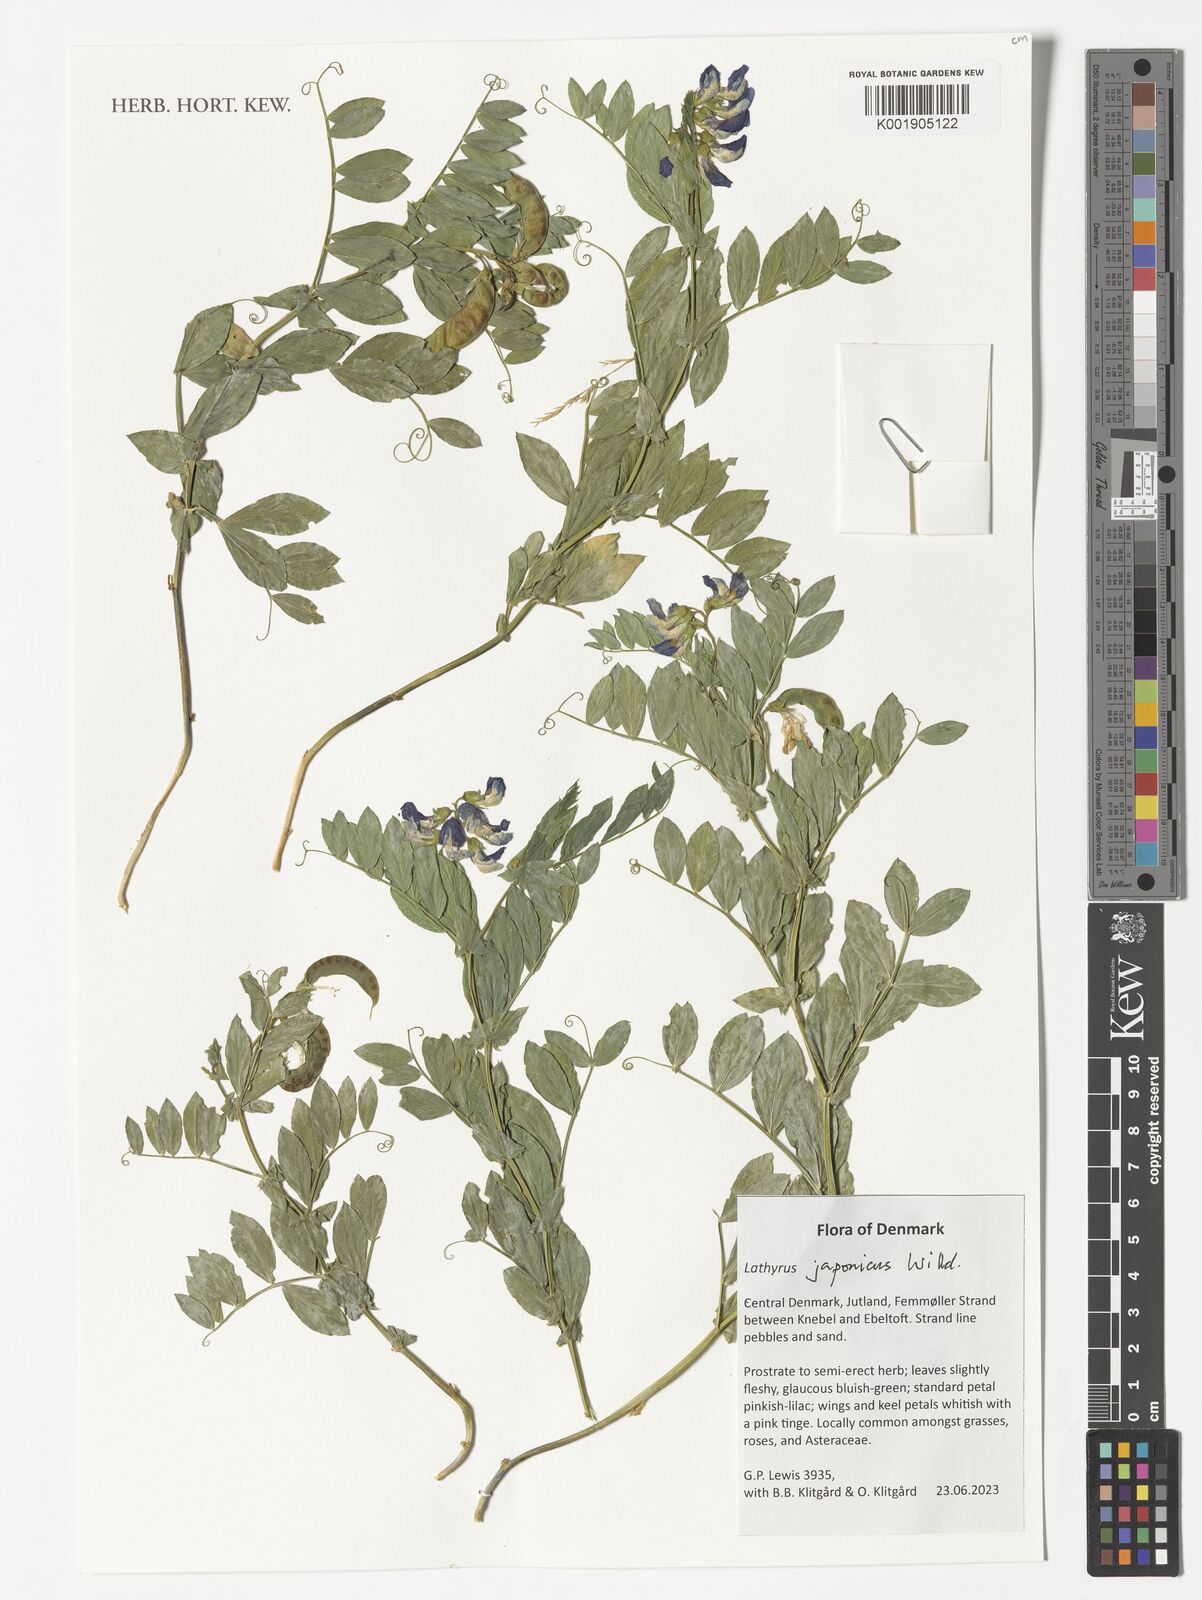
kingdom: Plantae
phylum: Tracheophyta
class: Magnoliopsida
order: Fabales
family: Fabaceae
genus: Lathyrus
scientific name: Lathyrus japonicus
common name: Sea pea
